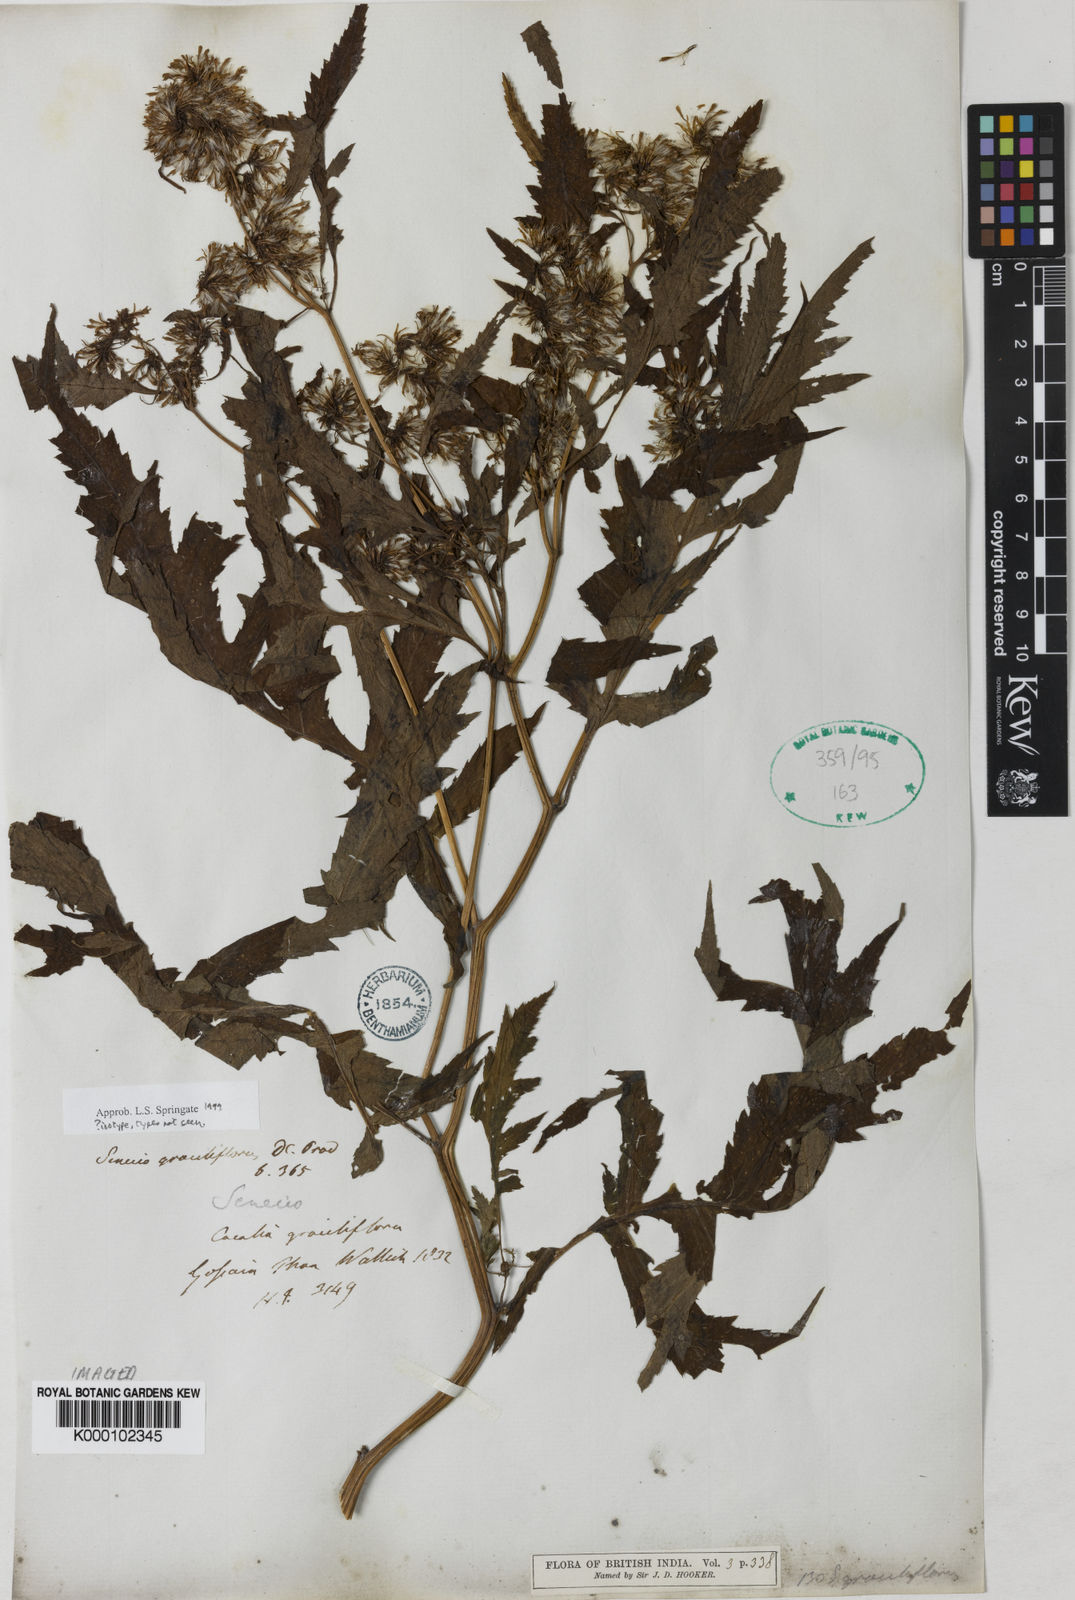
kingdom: Plantae
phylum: Tracheophyta
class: Magnoliopsida
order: Asterales
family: Asteraceae
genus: Jacobaea
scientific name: Jacobaea graciliflora
